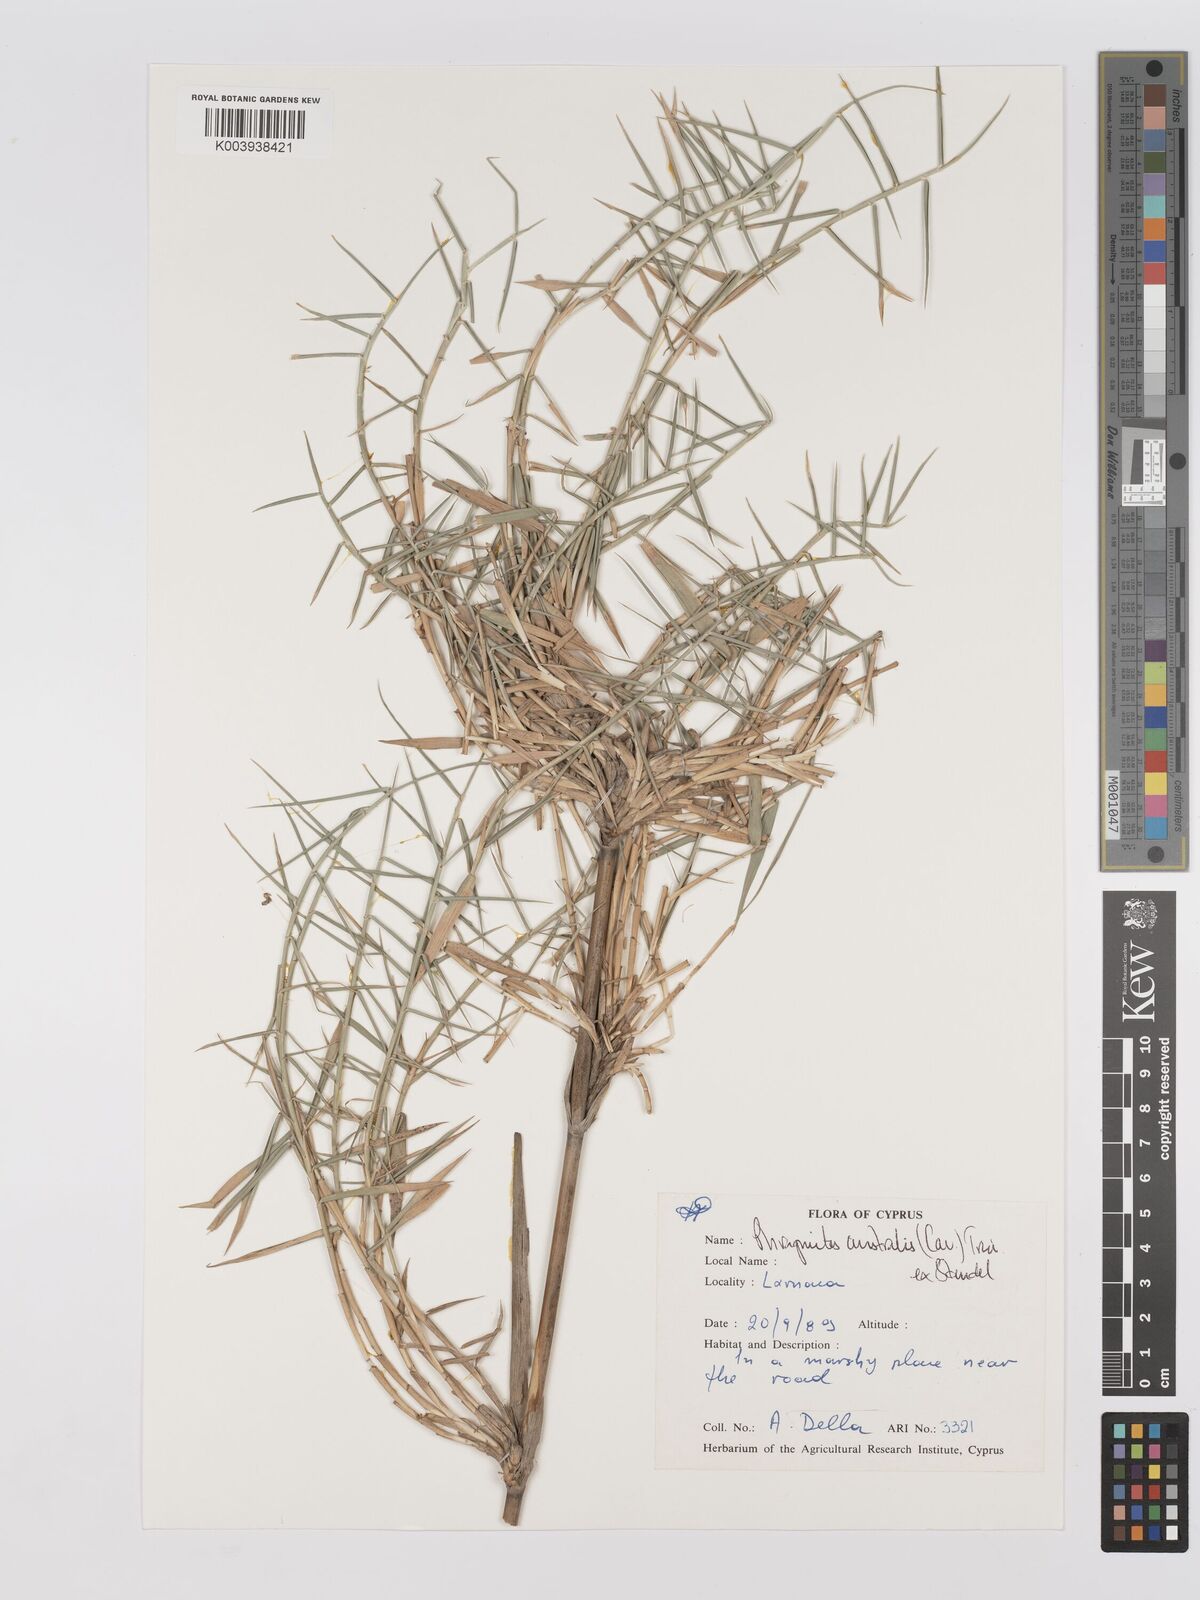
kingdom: Plantae
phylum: Tracheophyta
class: Liliopsida
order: Poales
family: Poaceae
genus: Phragmites
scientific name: Phragmites australis
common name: Common reed
